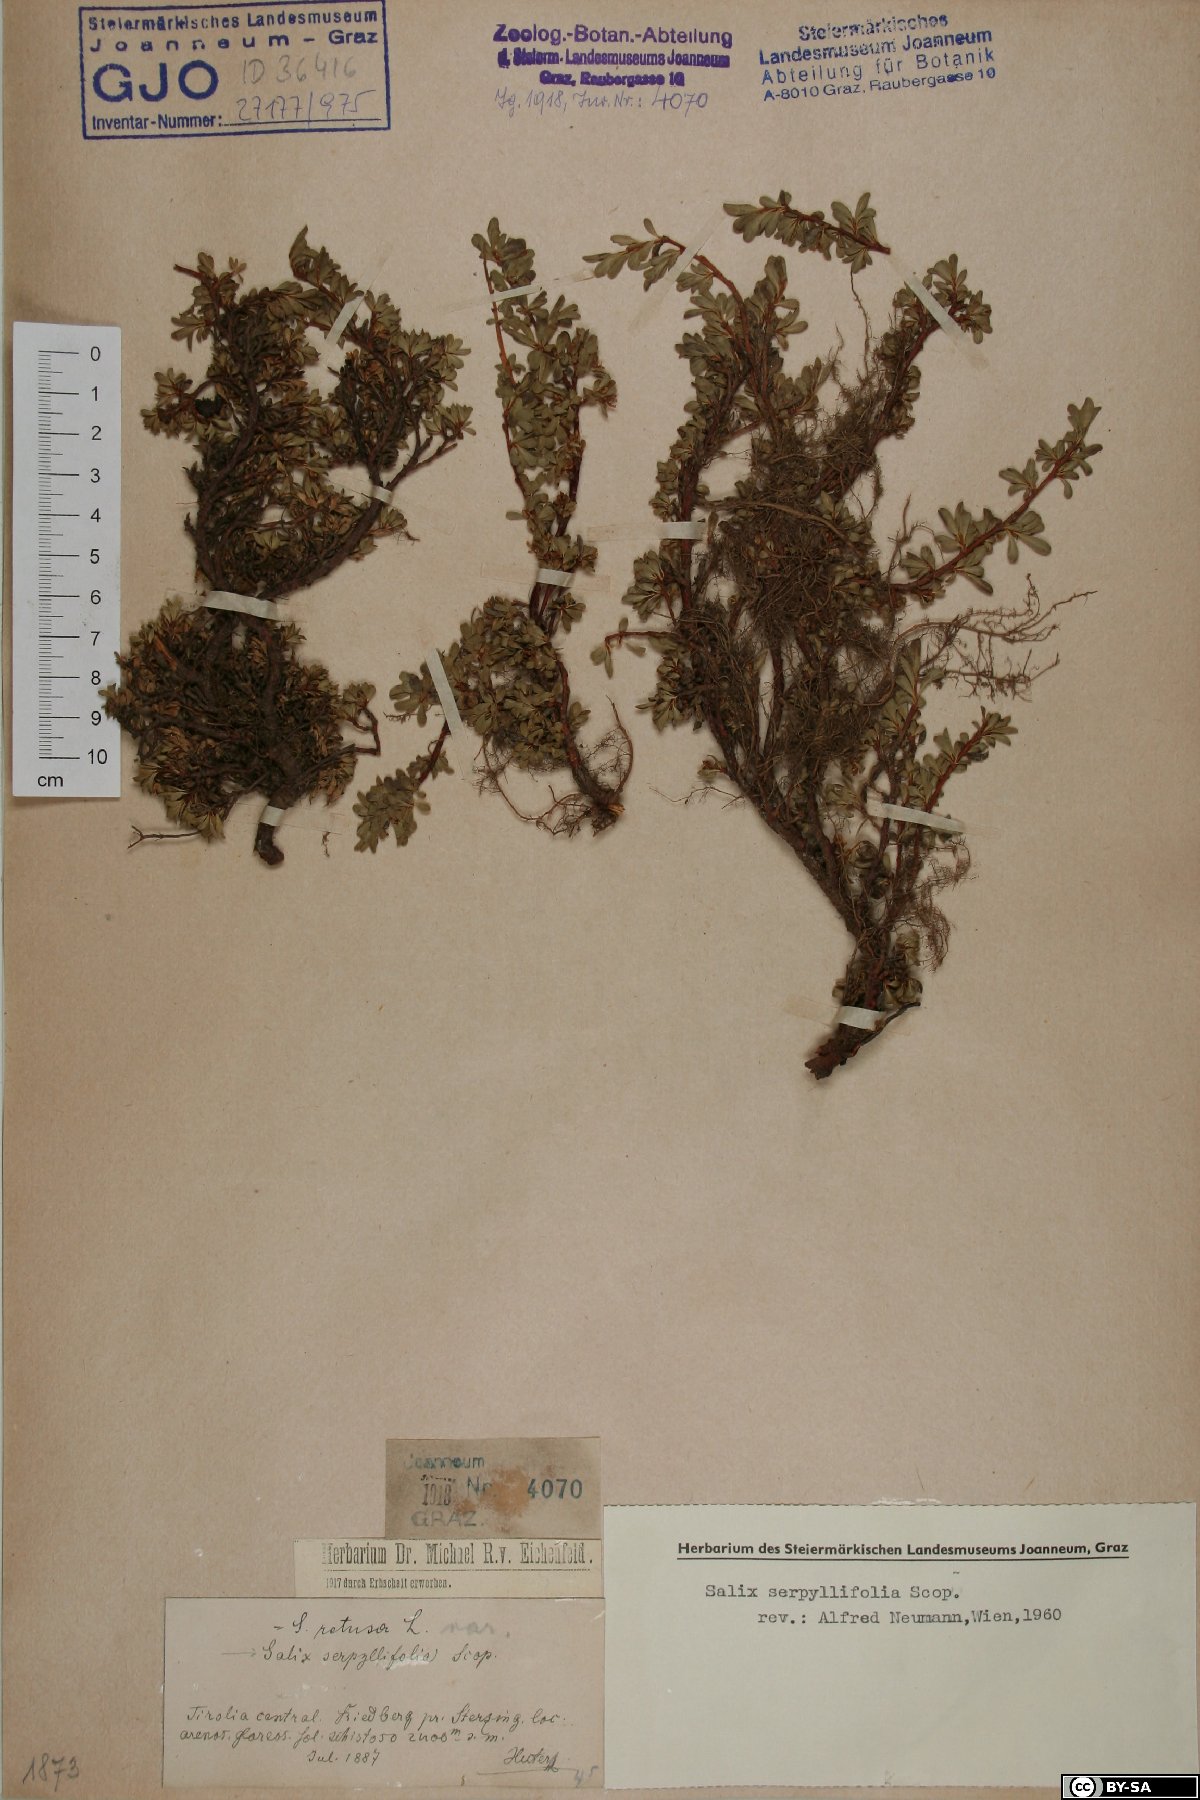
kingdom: Plantae
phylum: Tracheophyta
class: Magnoliopsida
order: Malpighiales
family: Salicaceae
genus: Salix
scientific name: Salix serpillifolia
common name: Thyme-leaf willow
